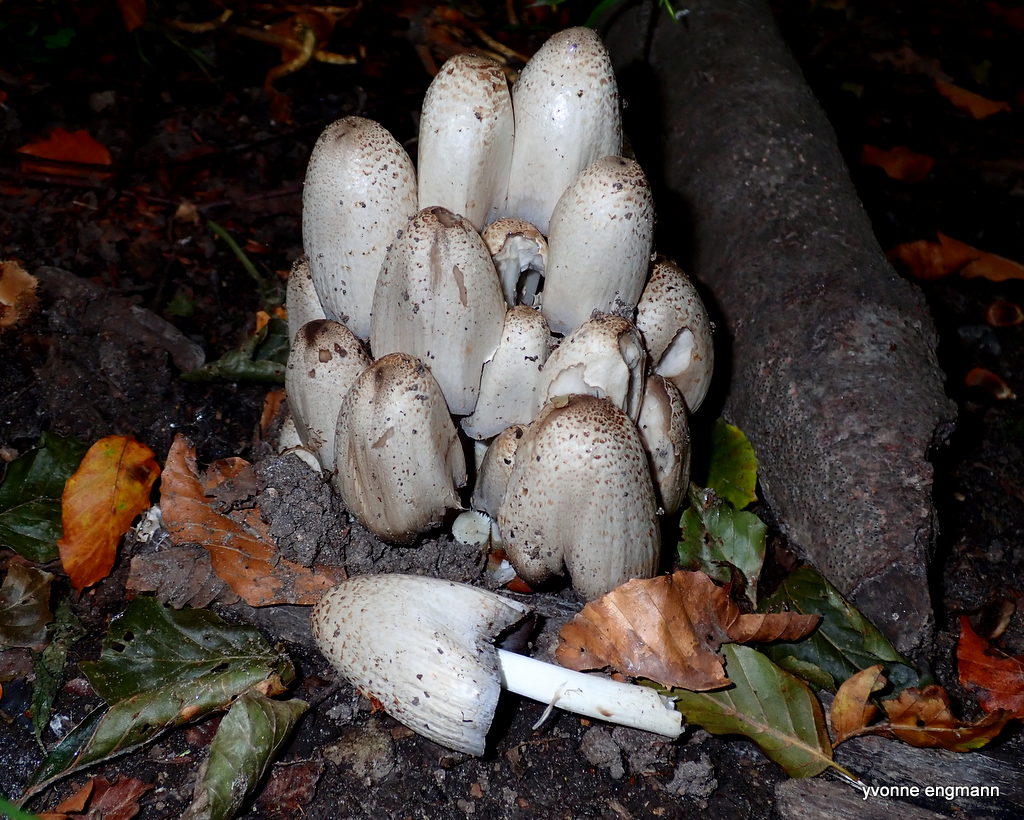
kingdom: Fungi
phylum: Basidiomycota
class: Agaricomycetes
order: Agaricales
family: Psathyrellaceae
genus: Coprinopsis
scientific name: Coprinopsis atramentaria
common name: almindelig blækhat
